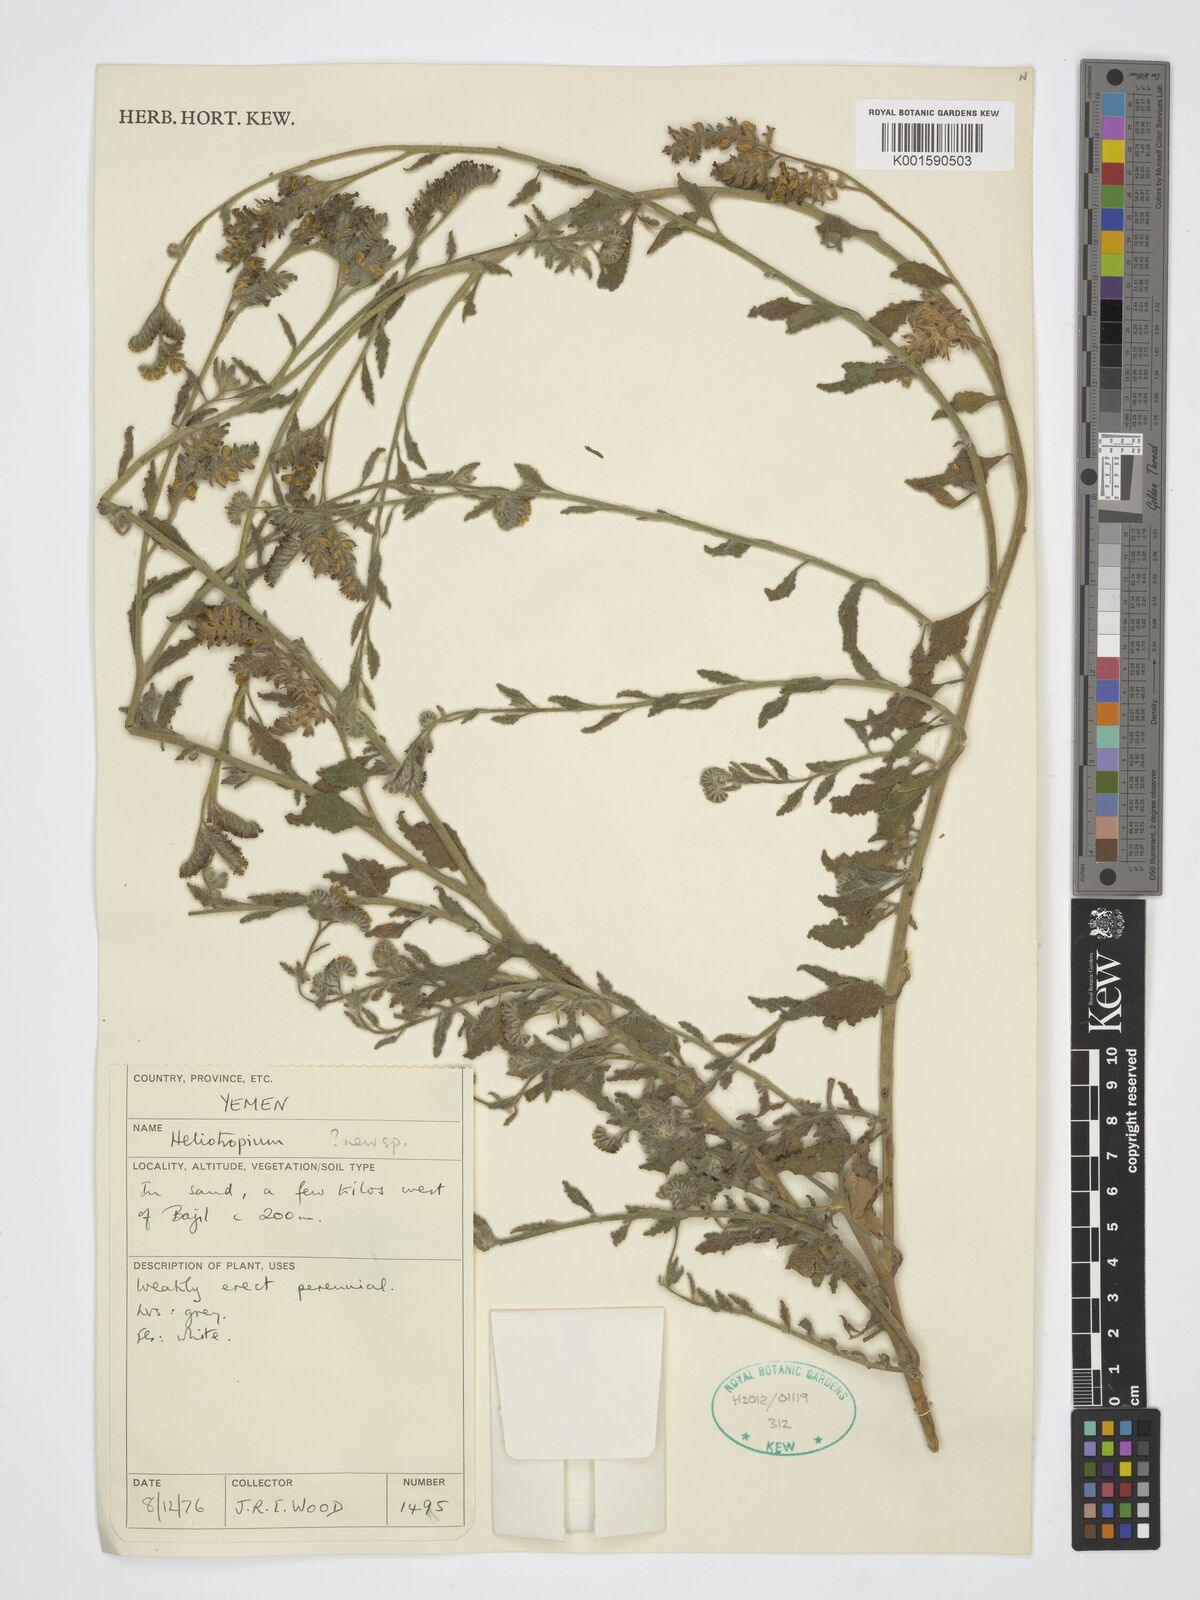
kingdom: Plantae
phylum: Tracheophyta
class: Magnoliopsida
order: Boraginales
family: Heliotropiaceae
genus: Heliotropium
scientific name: Heliotropium
